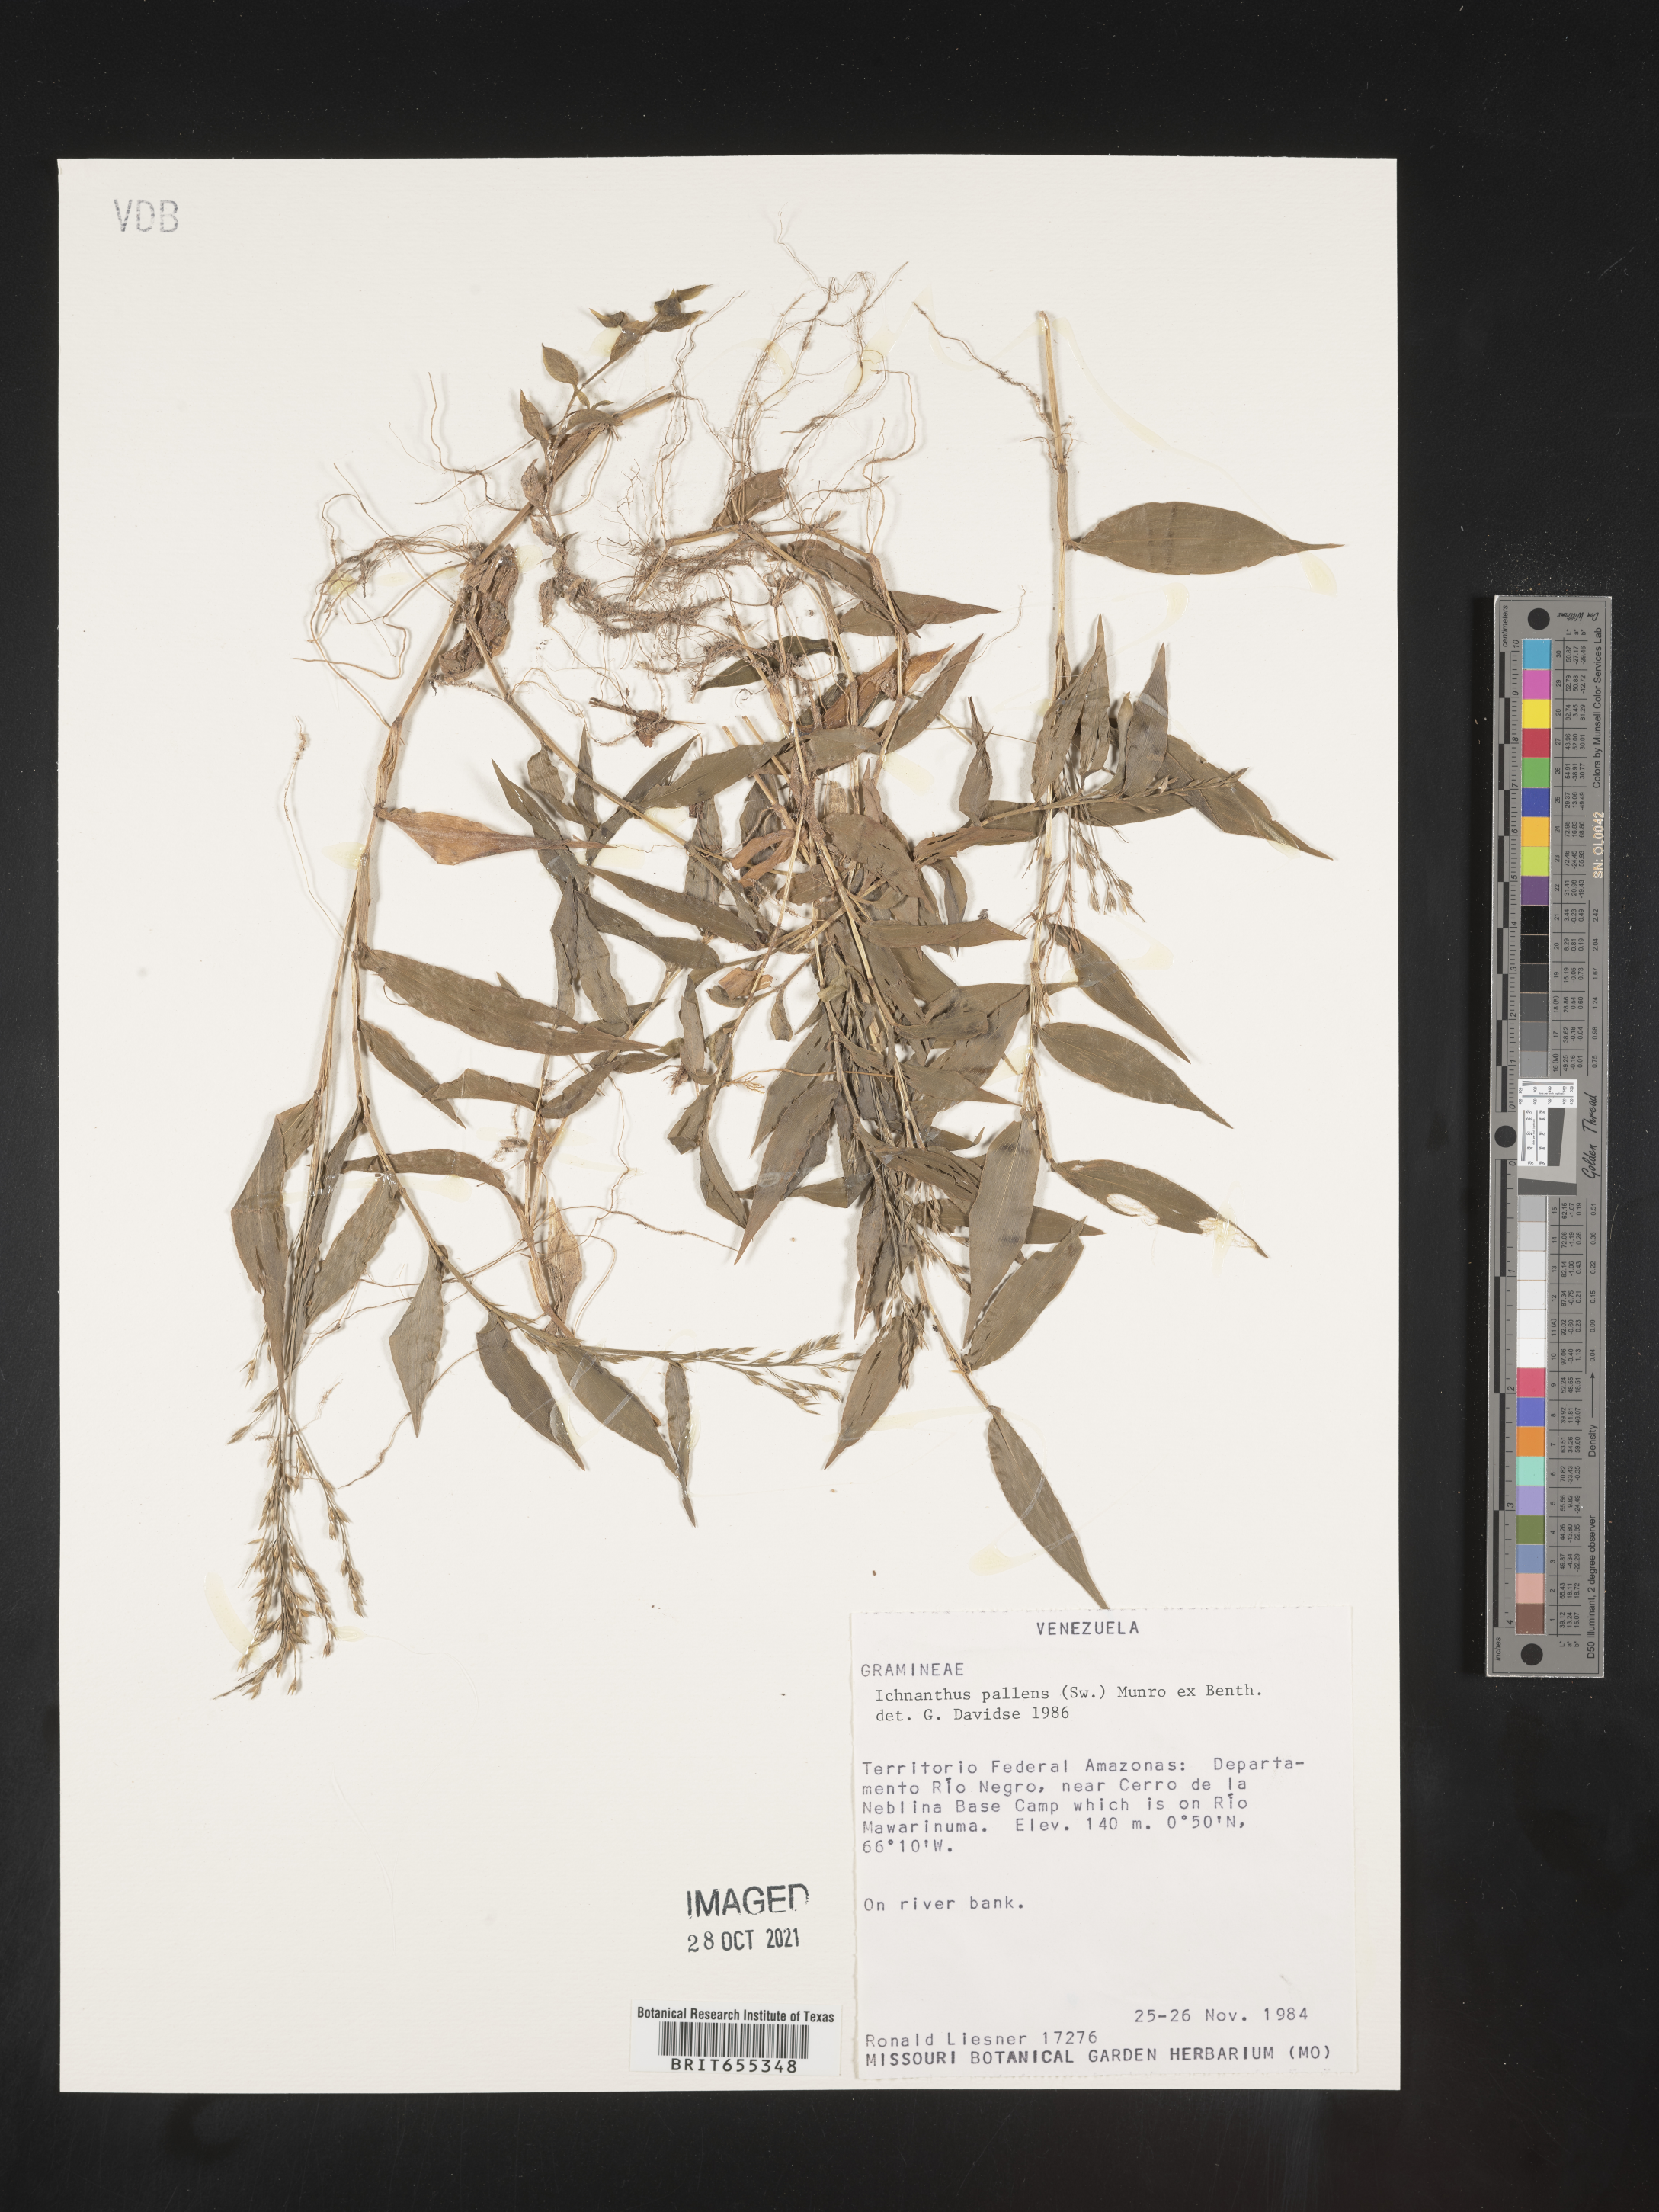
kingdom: Plantae
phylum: Tracheophyta
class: Liliopsida
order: Poales
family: Poaceae
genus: Ichnanthus
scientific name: Ichnanthus
